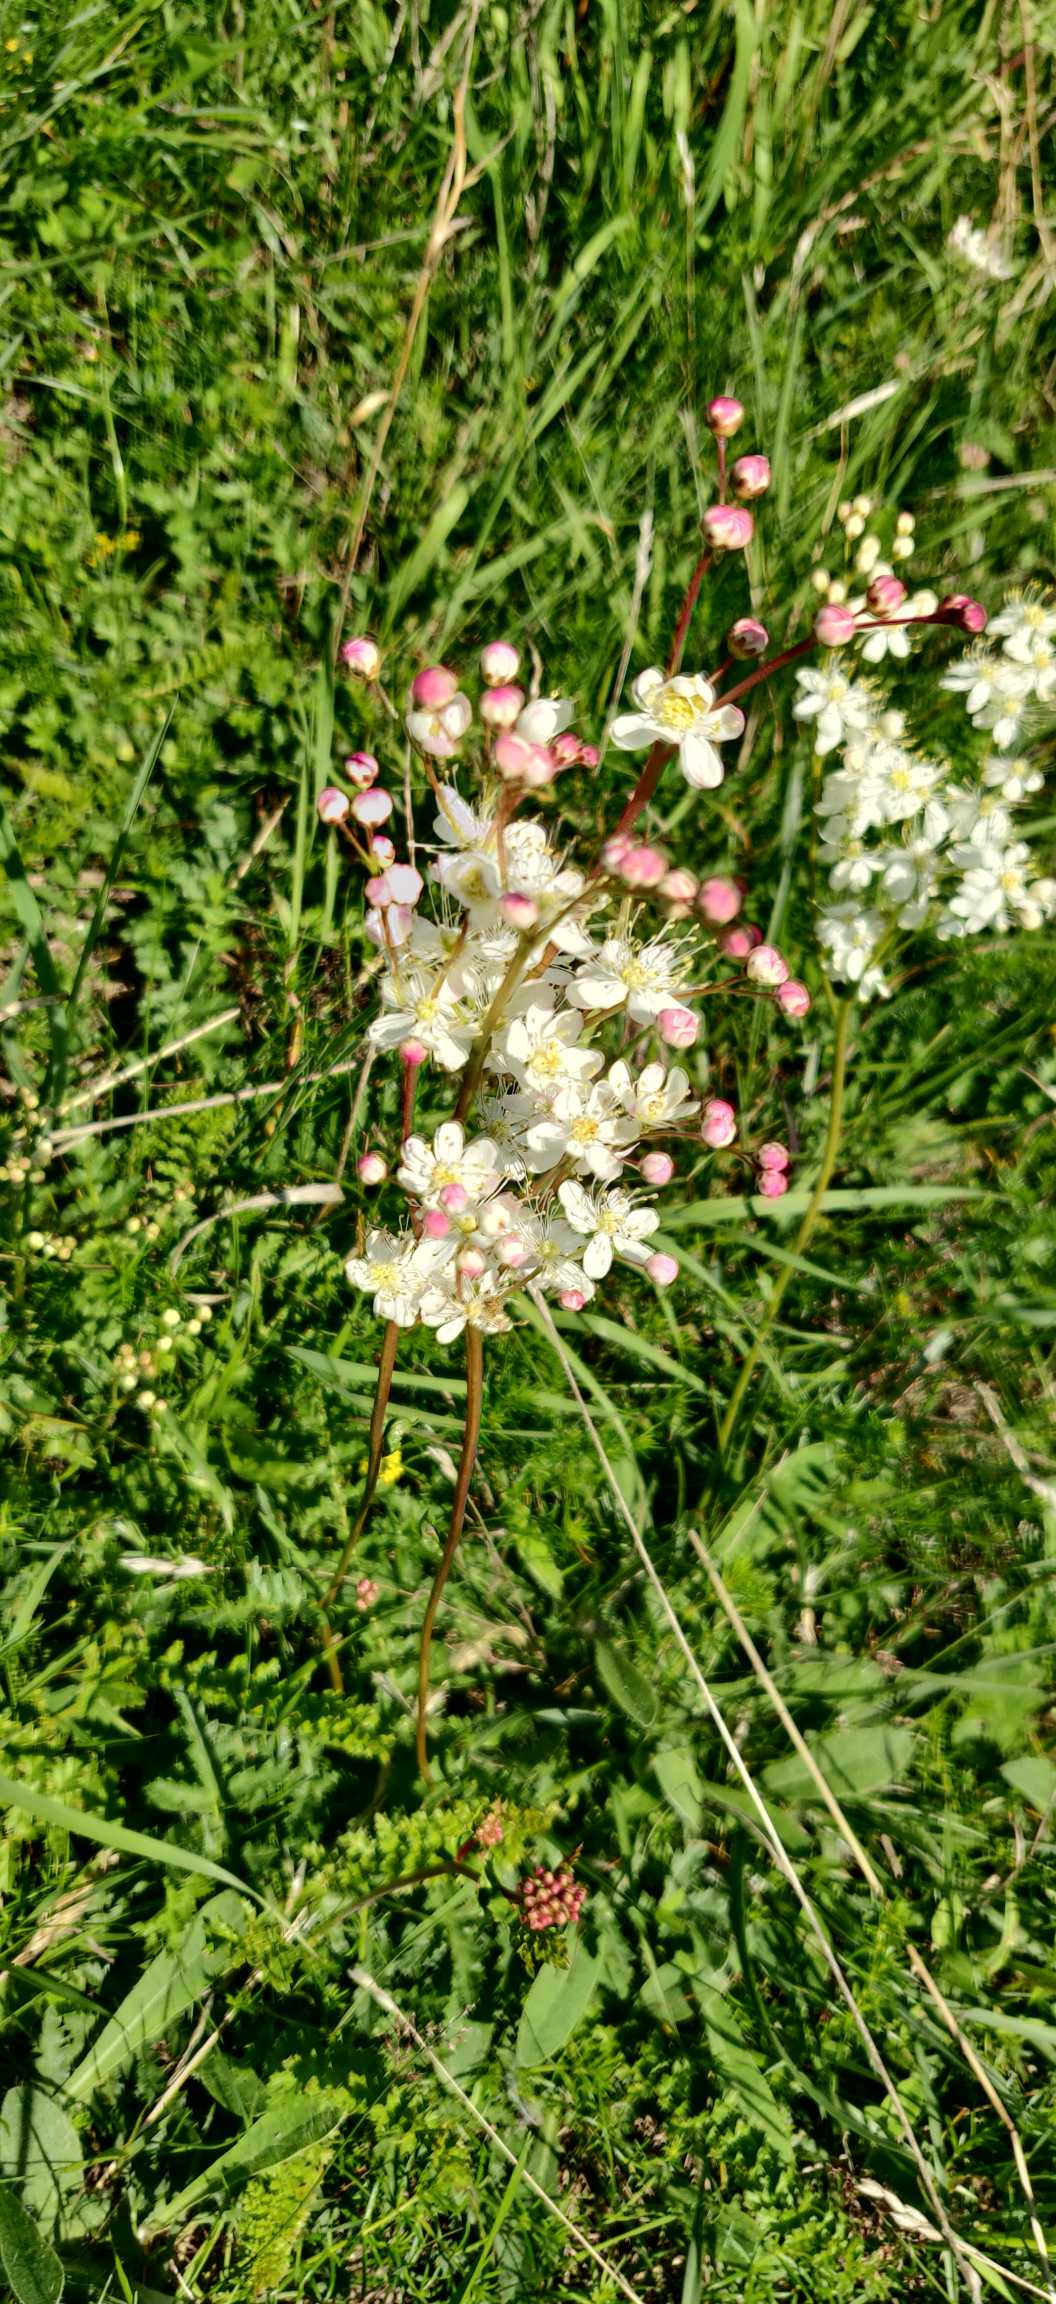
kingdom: Plantae
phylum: Tracheophyta
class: Magnoliopsida
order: Rosales
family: Rosaceae
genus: Filipendula
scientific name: Filipendula vulgaris
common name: Knoldet mjødurt
